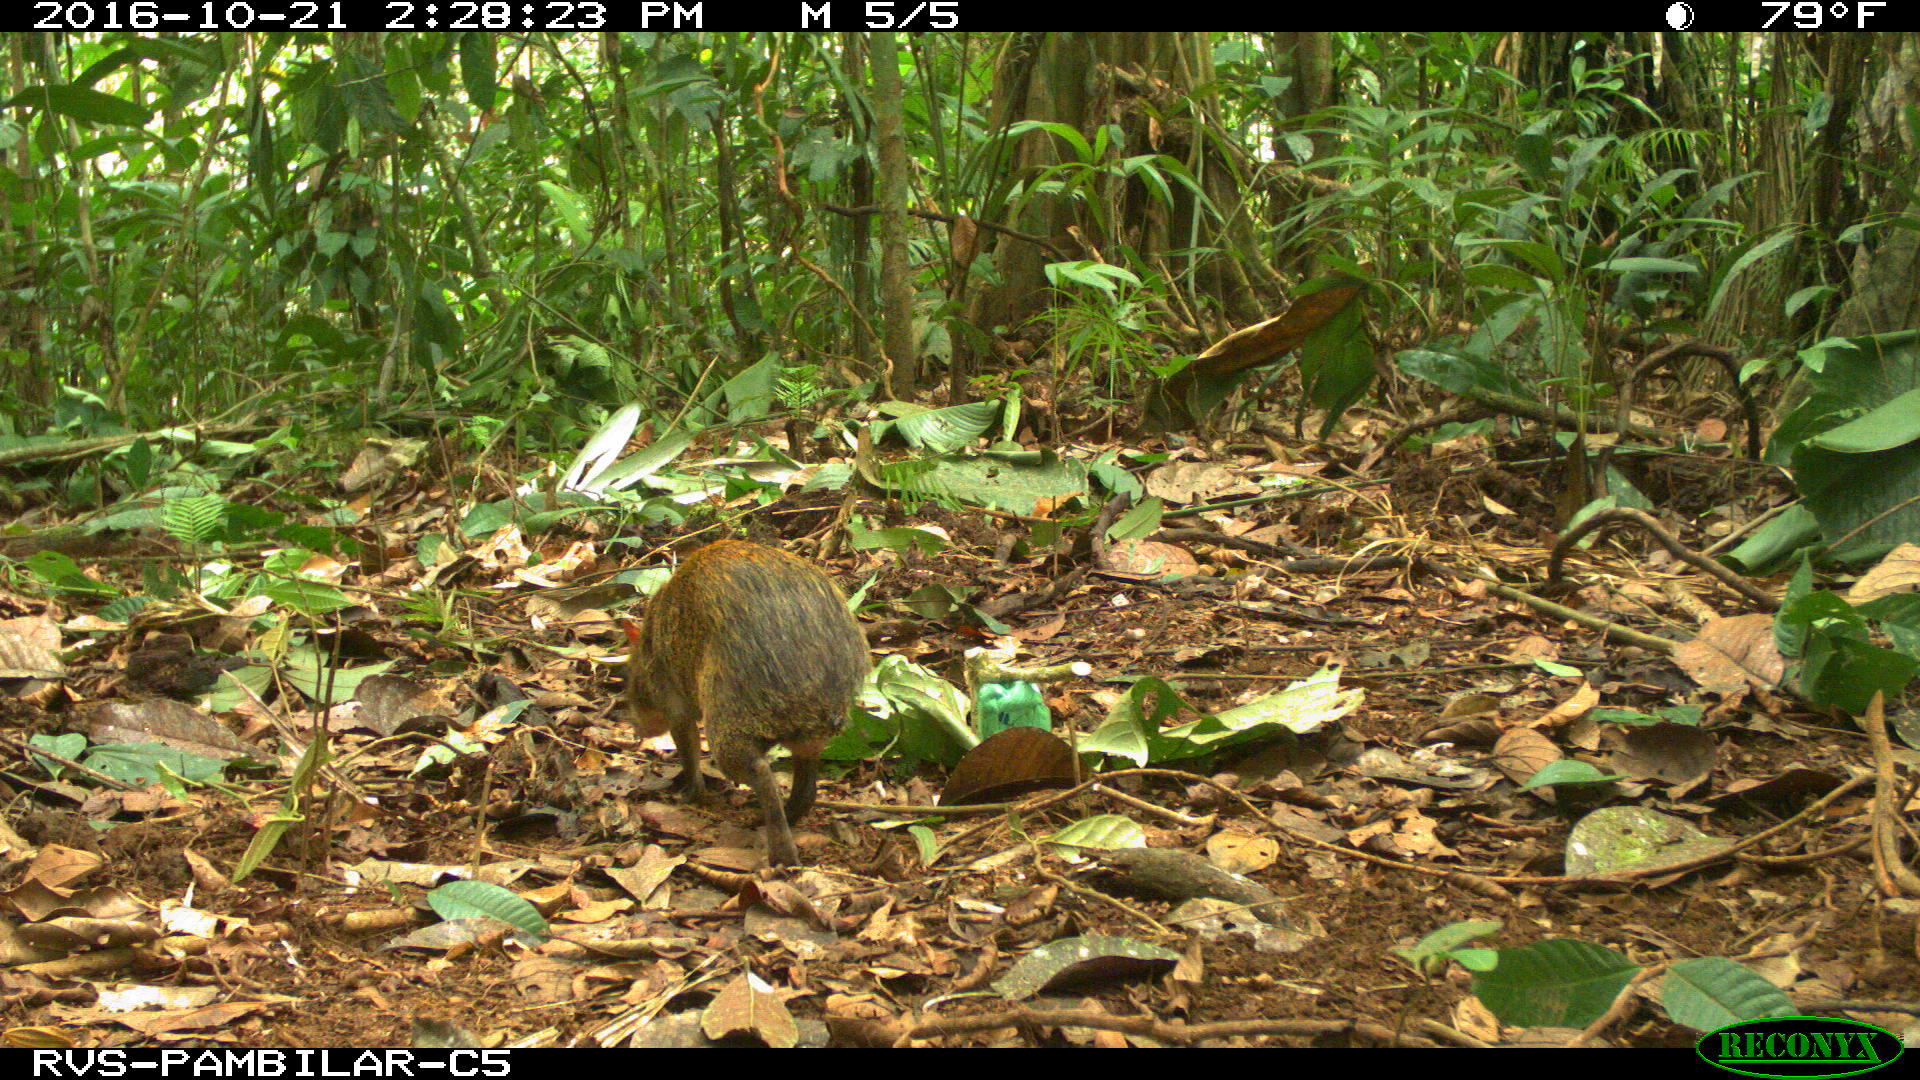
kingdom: Animalia
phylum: Chordata
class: Mammalia
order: Rodentia
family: Dasyproctidae
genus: Dasyprocta
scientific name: Dasyprocta punctata
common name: Central american agouti
